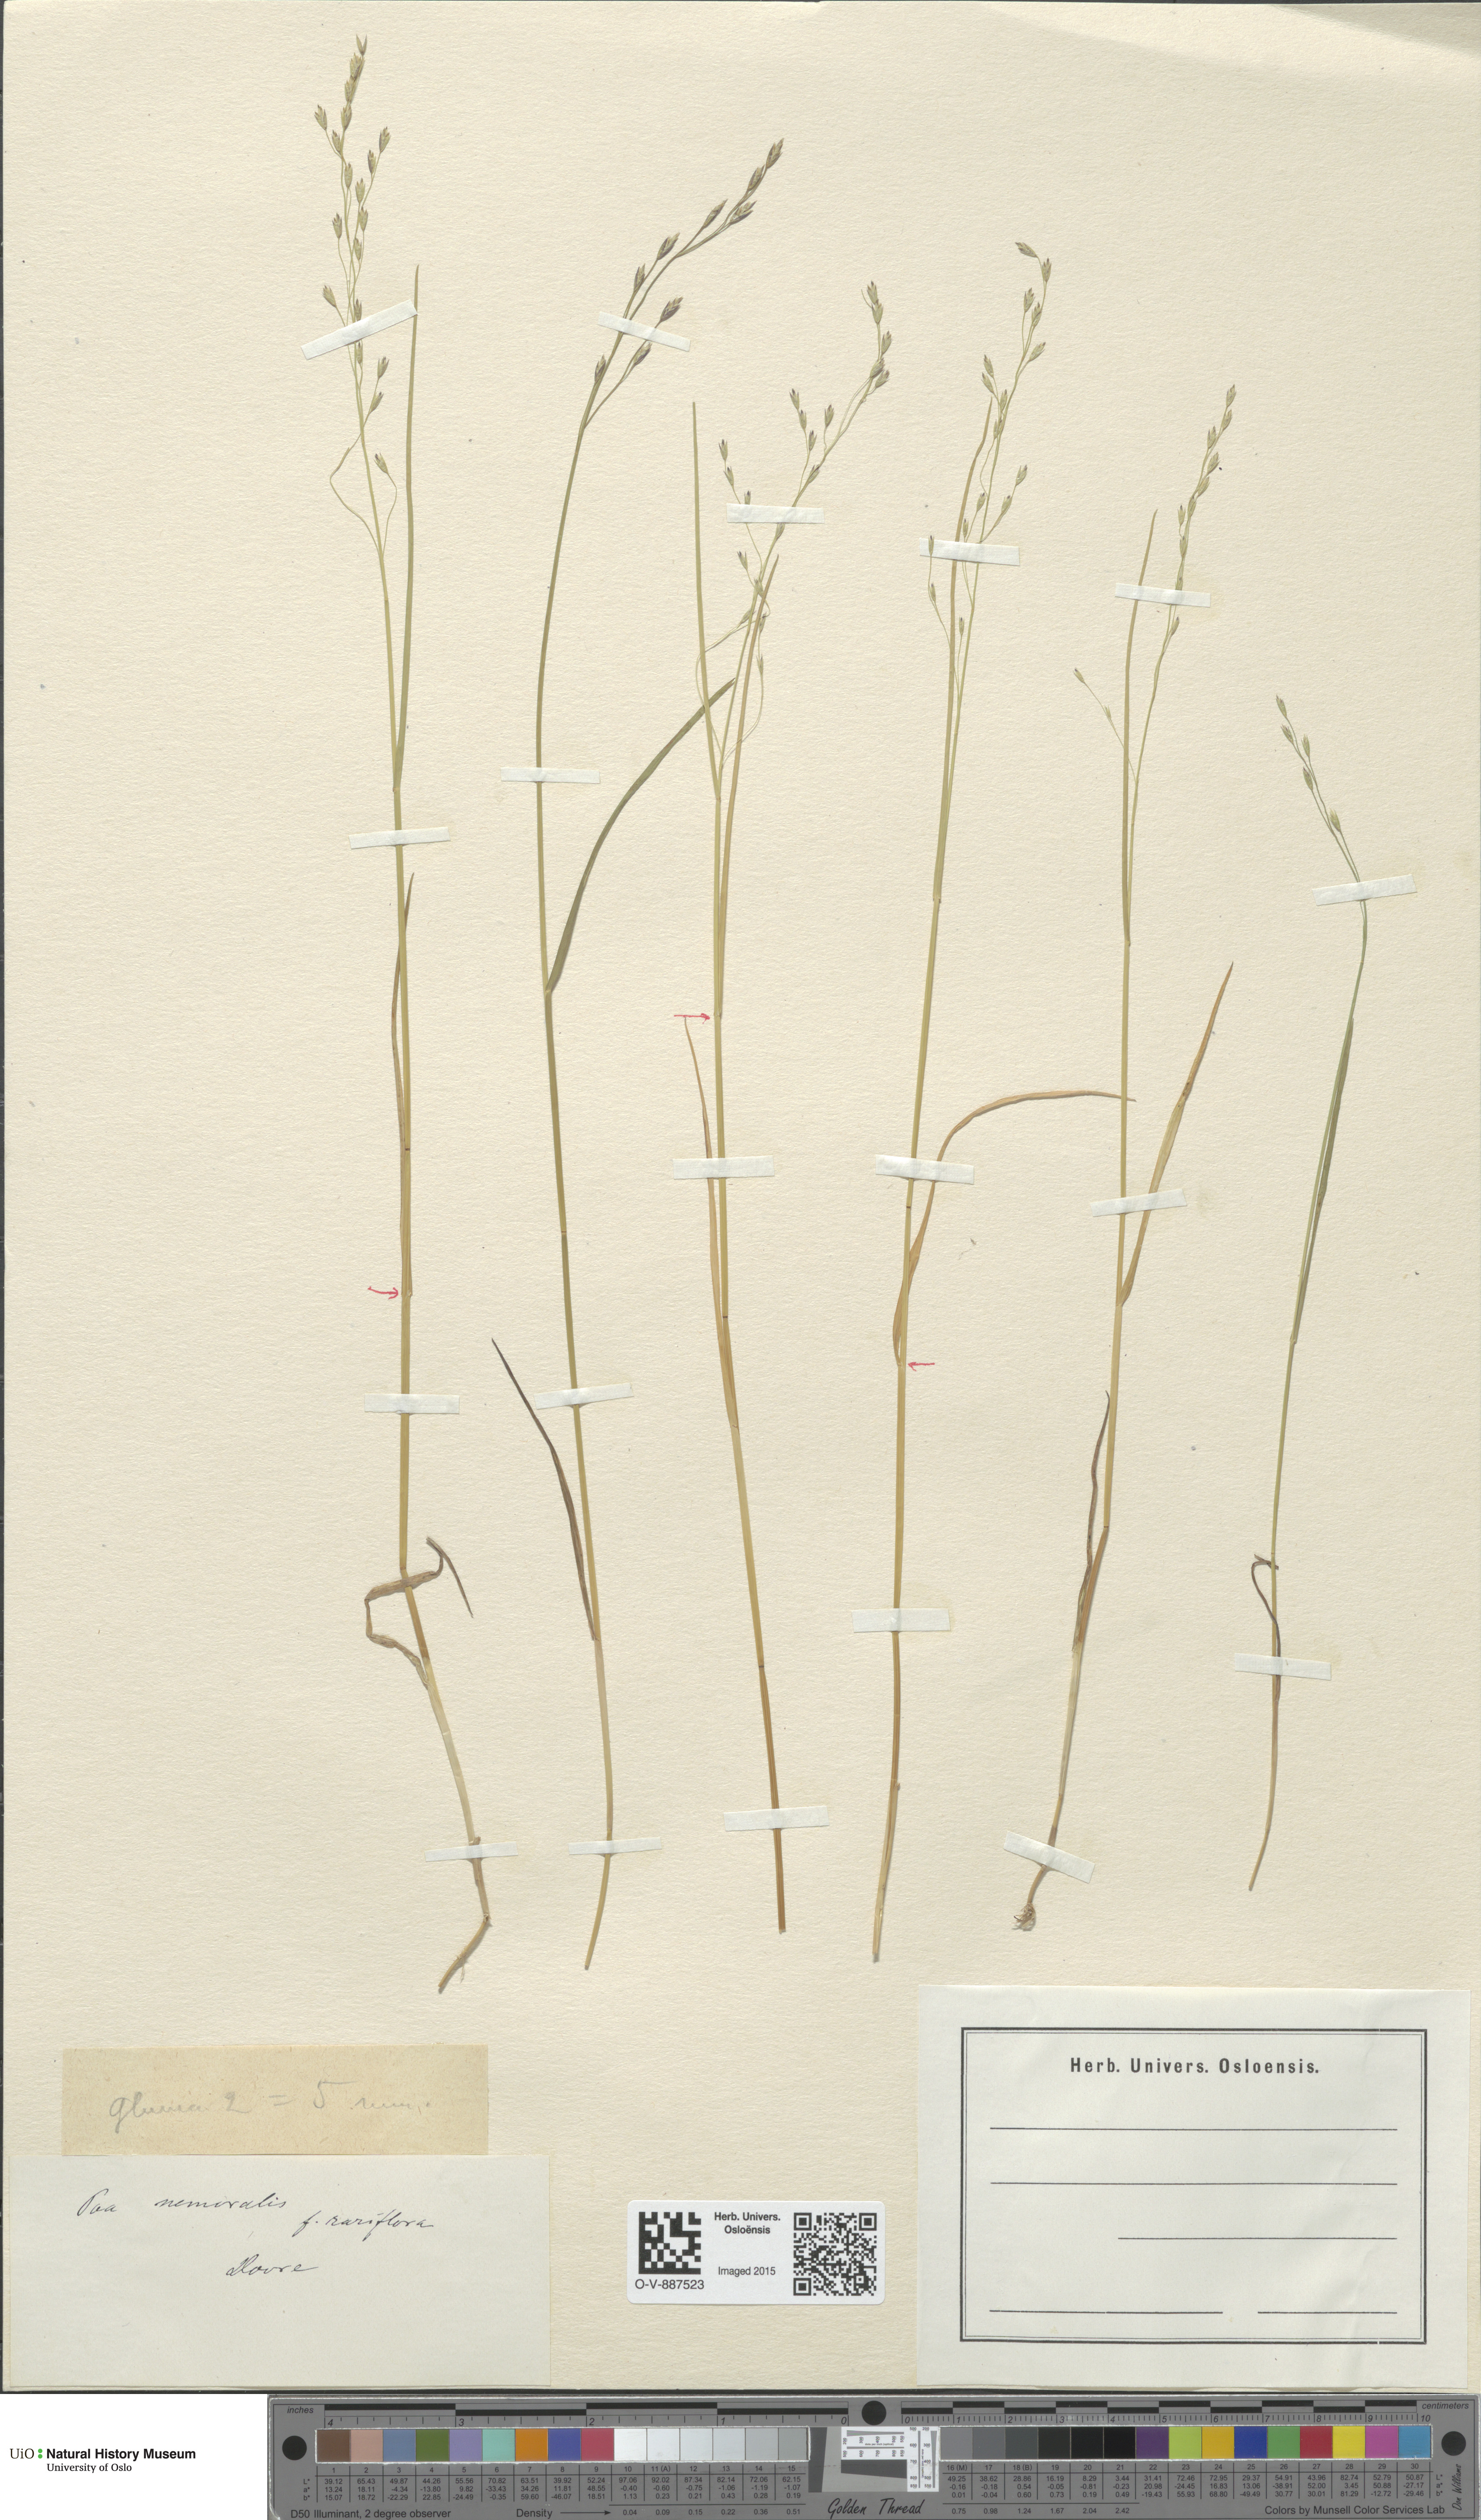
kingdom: Plantae
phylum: Tracheophyta
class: Liliopsida
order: Poales
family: Poaceae
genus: Poa
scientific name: Poa nemoralis
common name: Wood bluegrass
